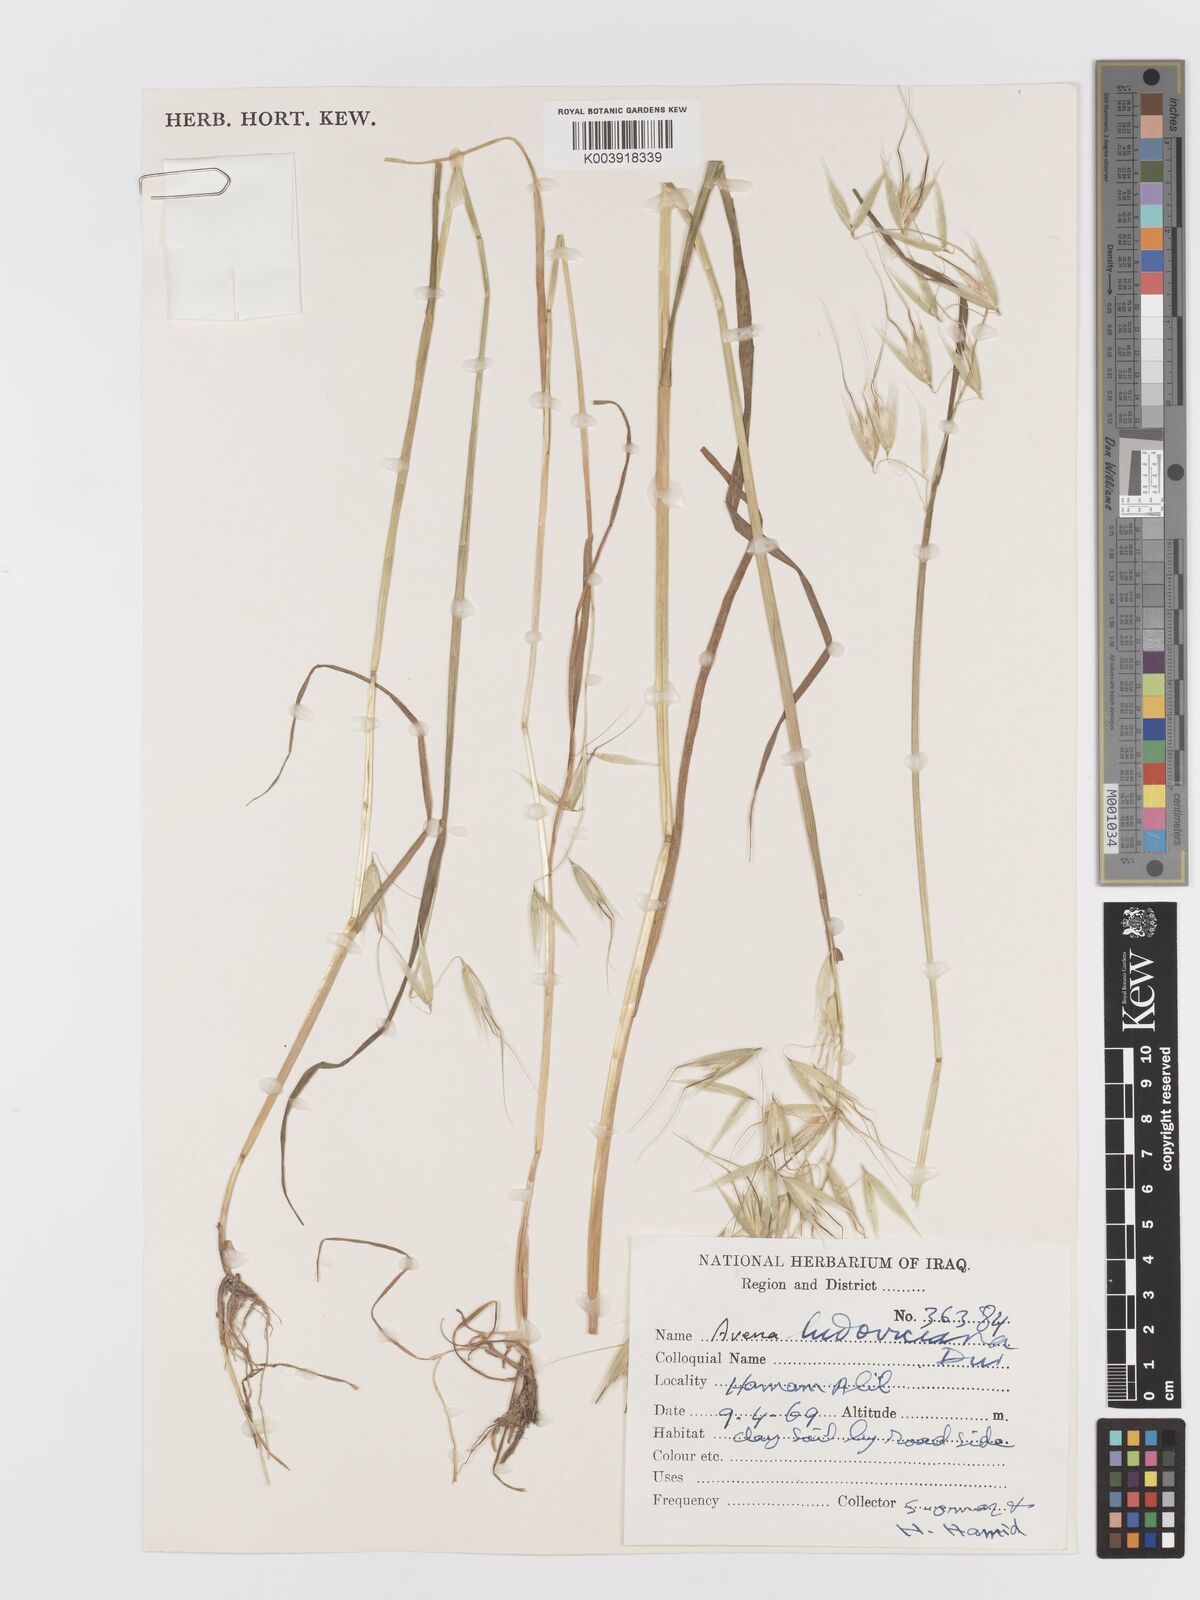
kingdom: Plantae
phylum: Tracheophyta
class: Liliopsida
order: Poales
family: Poaceae
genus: Avena
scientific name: Avena sterilis
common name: Animated oat
